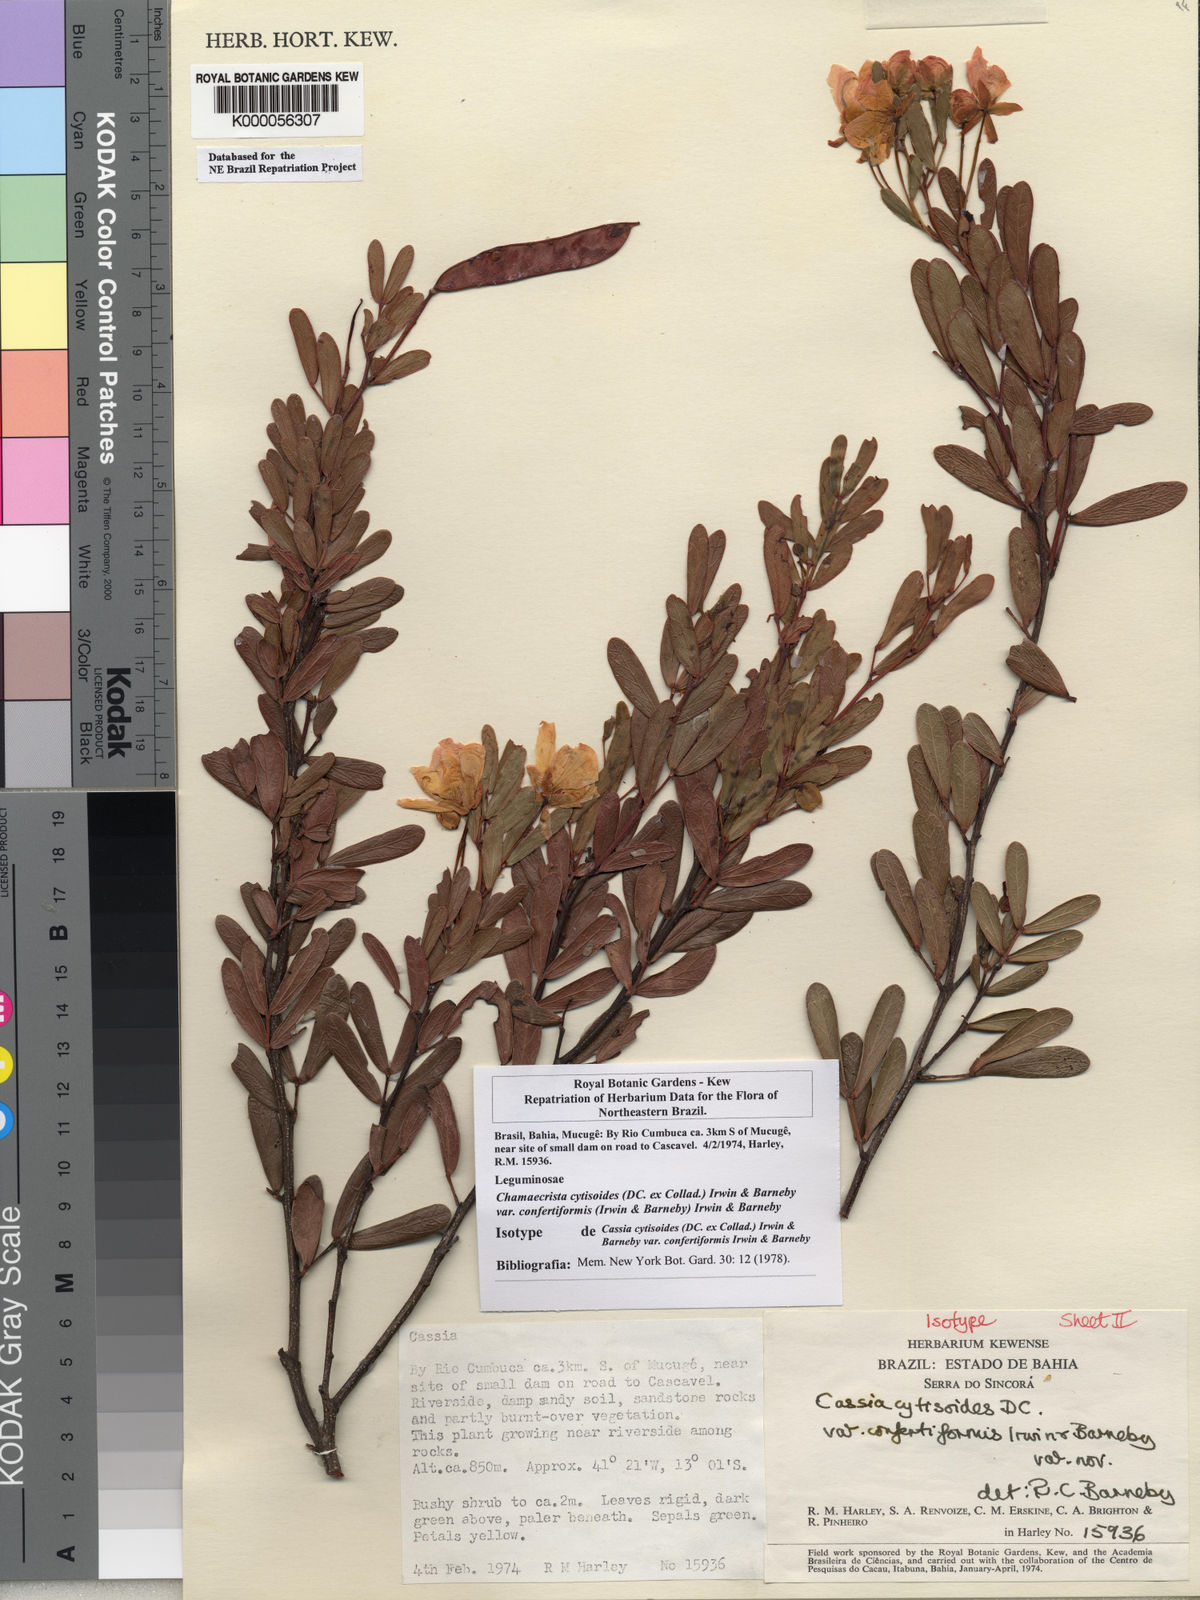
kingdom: Plantae
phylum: Tracheophyta
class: Magnoliopsida
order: Fabales
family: Fabaceae
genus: Chamaecrista
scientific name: Chamaecrista confertiformis
